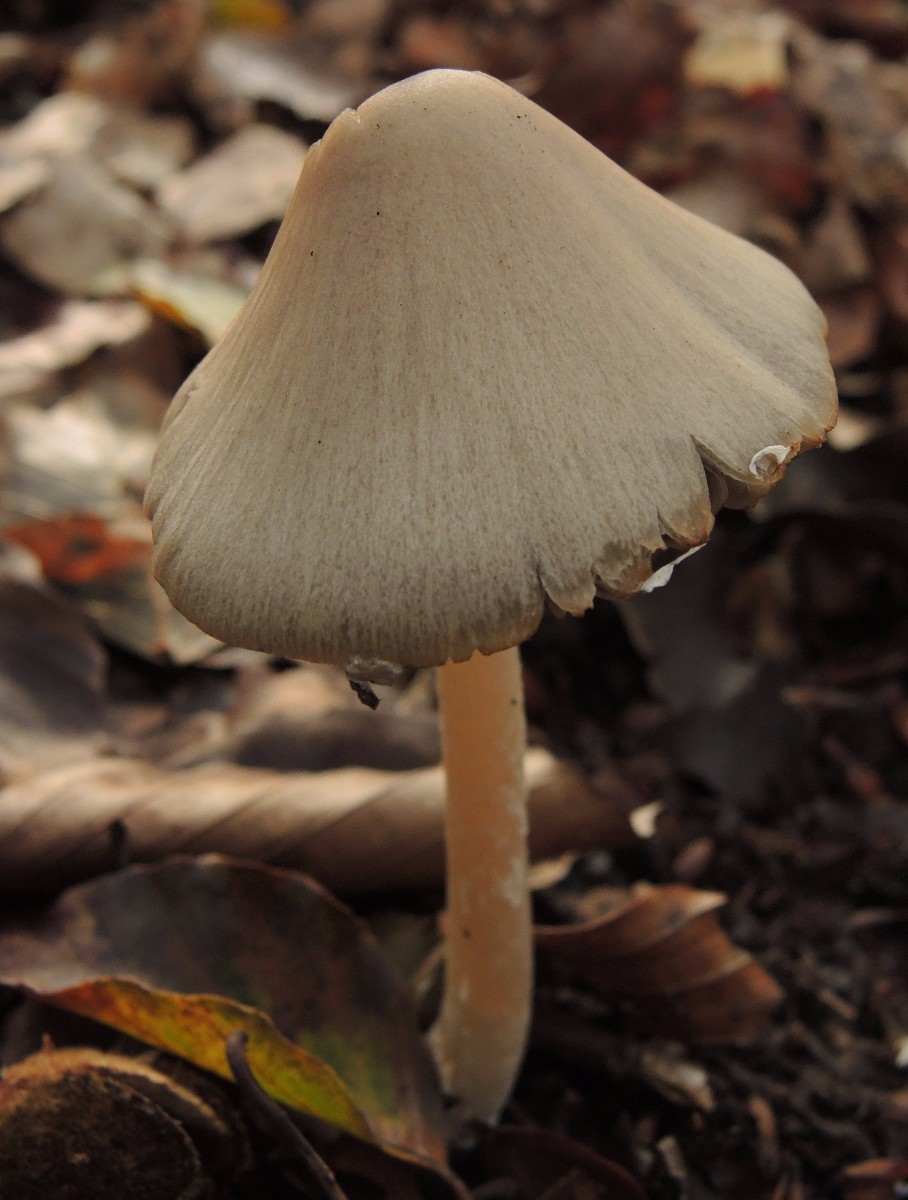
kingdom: Fungi
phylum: Basidiomycota
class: Agaricomycetes
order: Agaricales
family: Psathyrellaceae
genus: Coprinopsis
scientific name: Coprinopsis marcescibilis
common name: ruderat-blækhat
